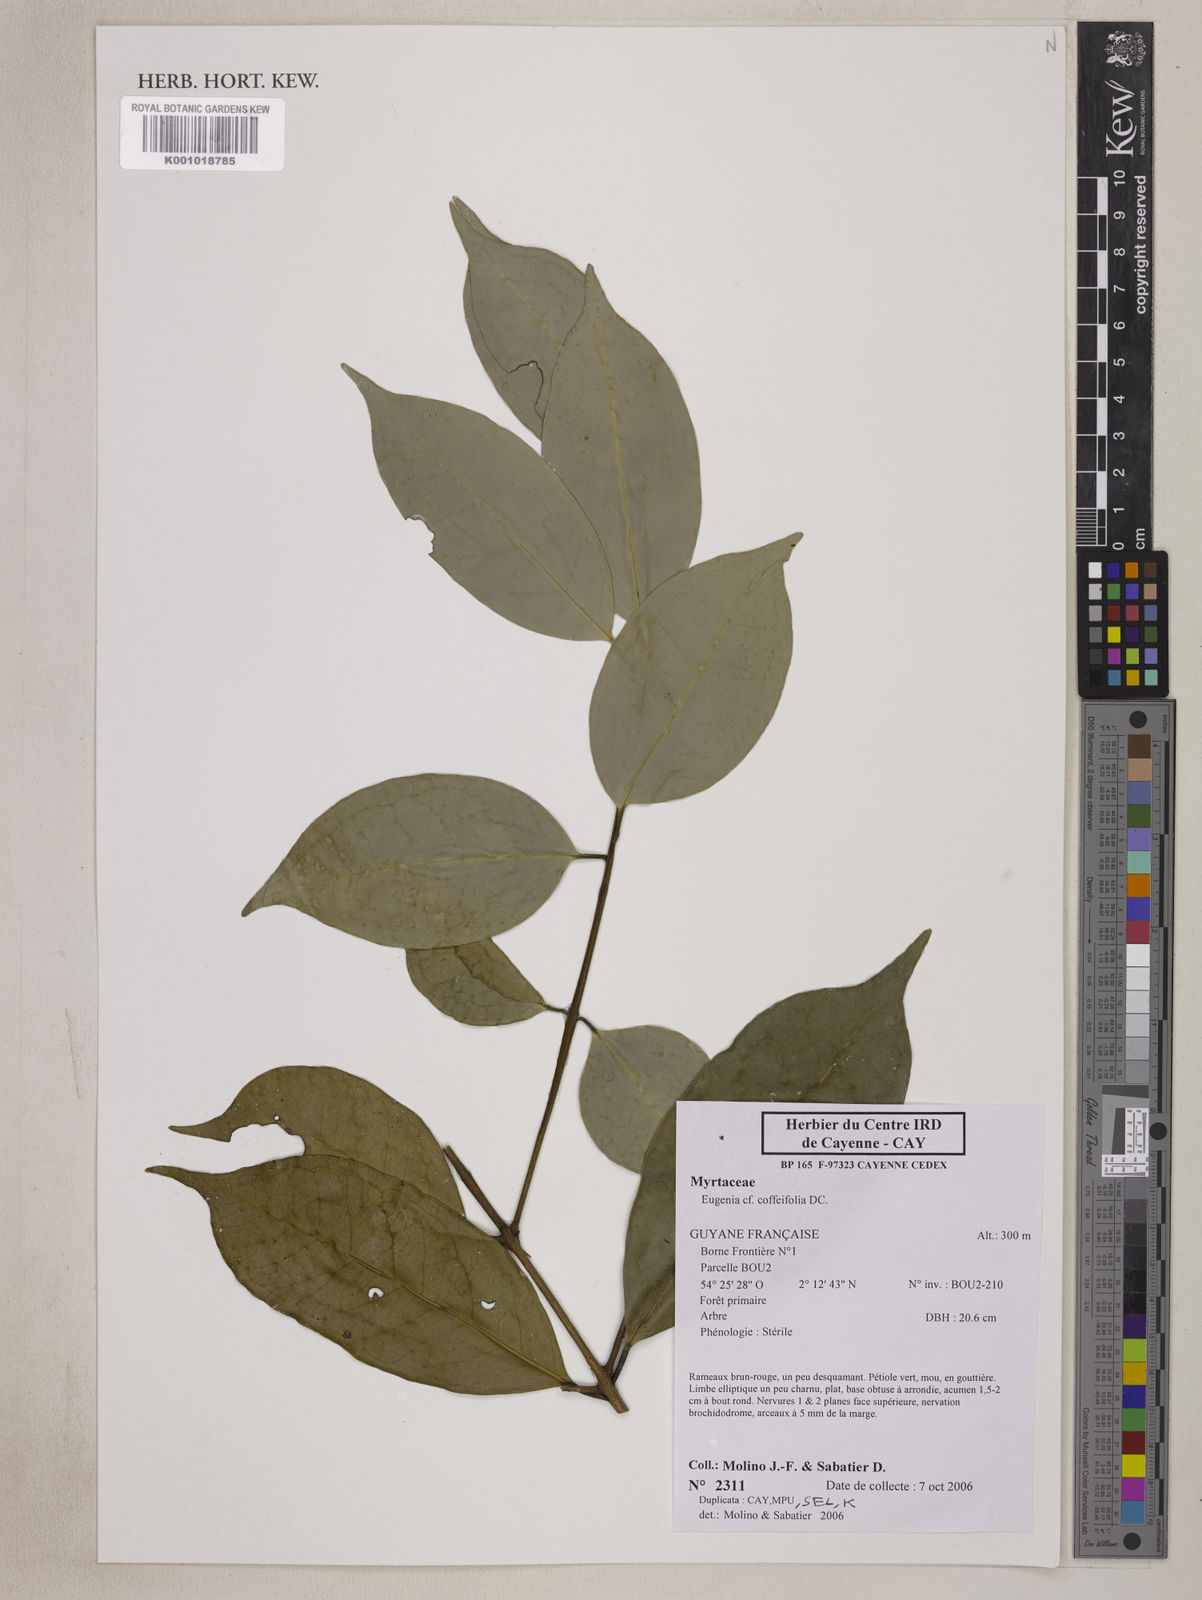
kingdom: Plantae
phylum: Tracheophyta
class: Magnoliopsida
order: Myrtales
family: Myrtaceae
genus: Eugenia
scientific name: Eugenia coffeifolia
